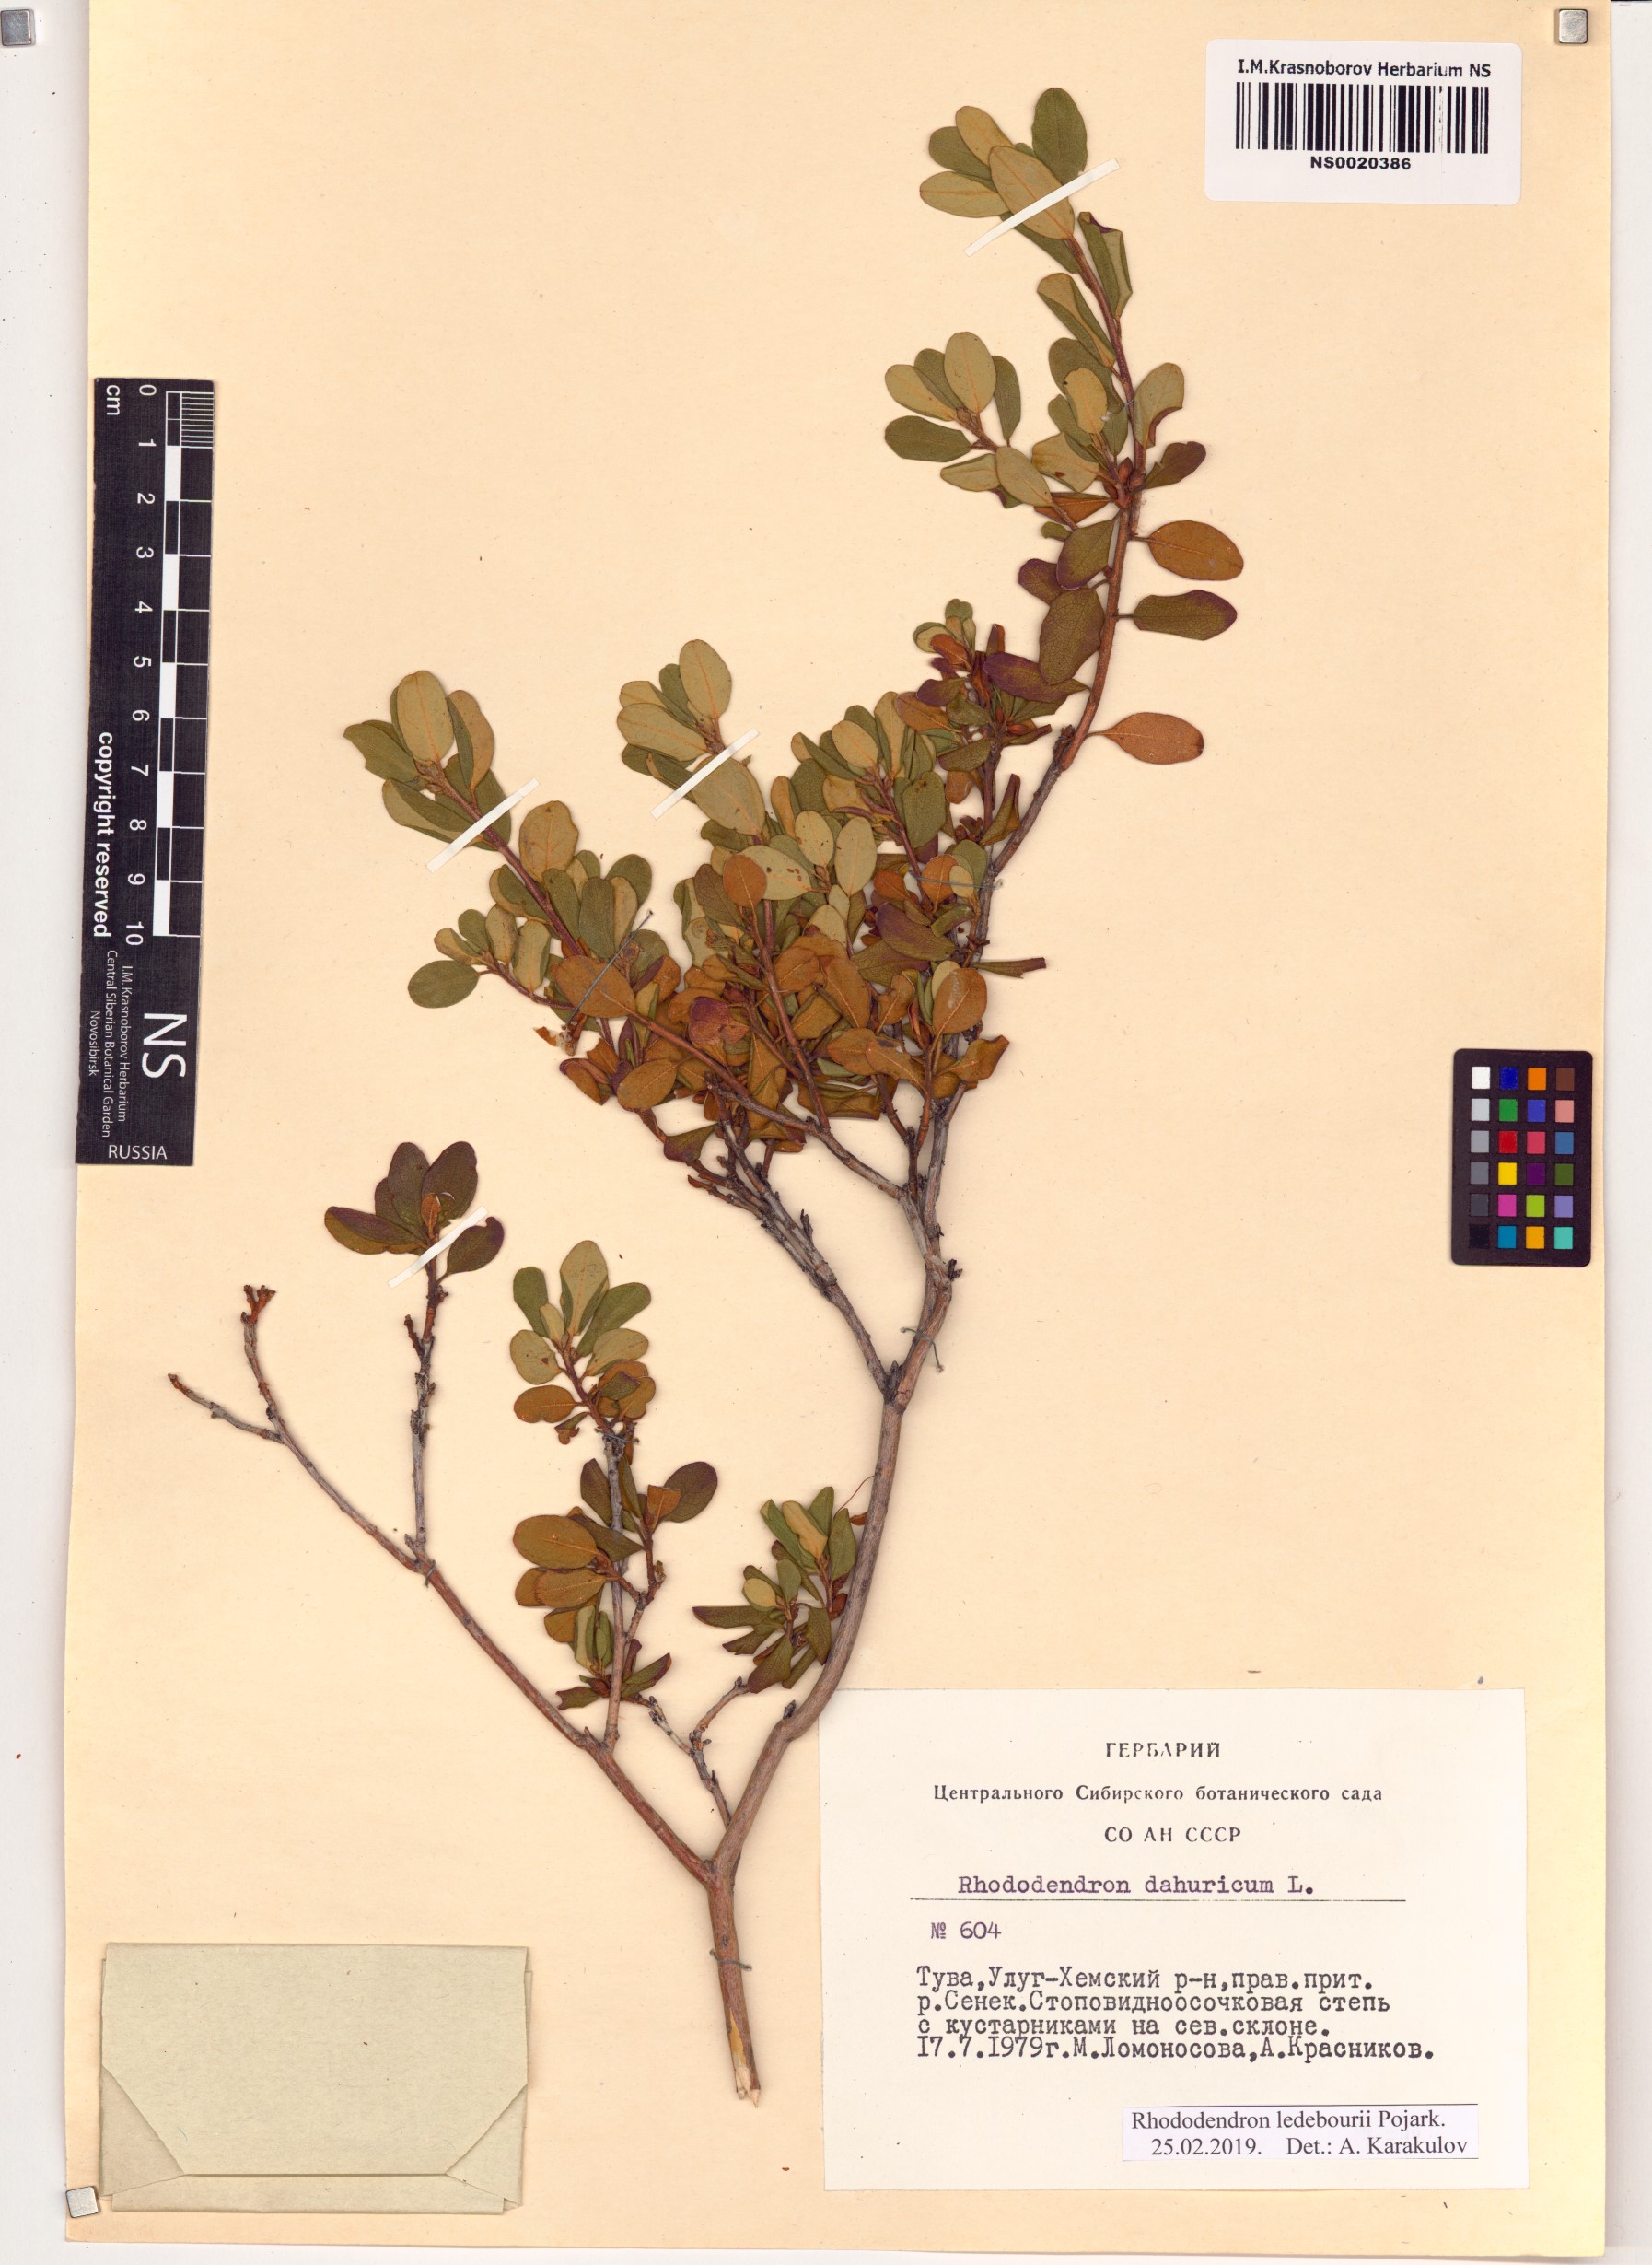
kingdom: Plantae
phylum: Tracheophyta
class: Magnoliopsida
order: Ericales
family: Ericaceae
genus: Rhododendron
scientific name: Rhododendron dauricum
